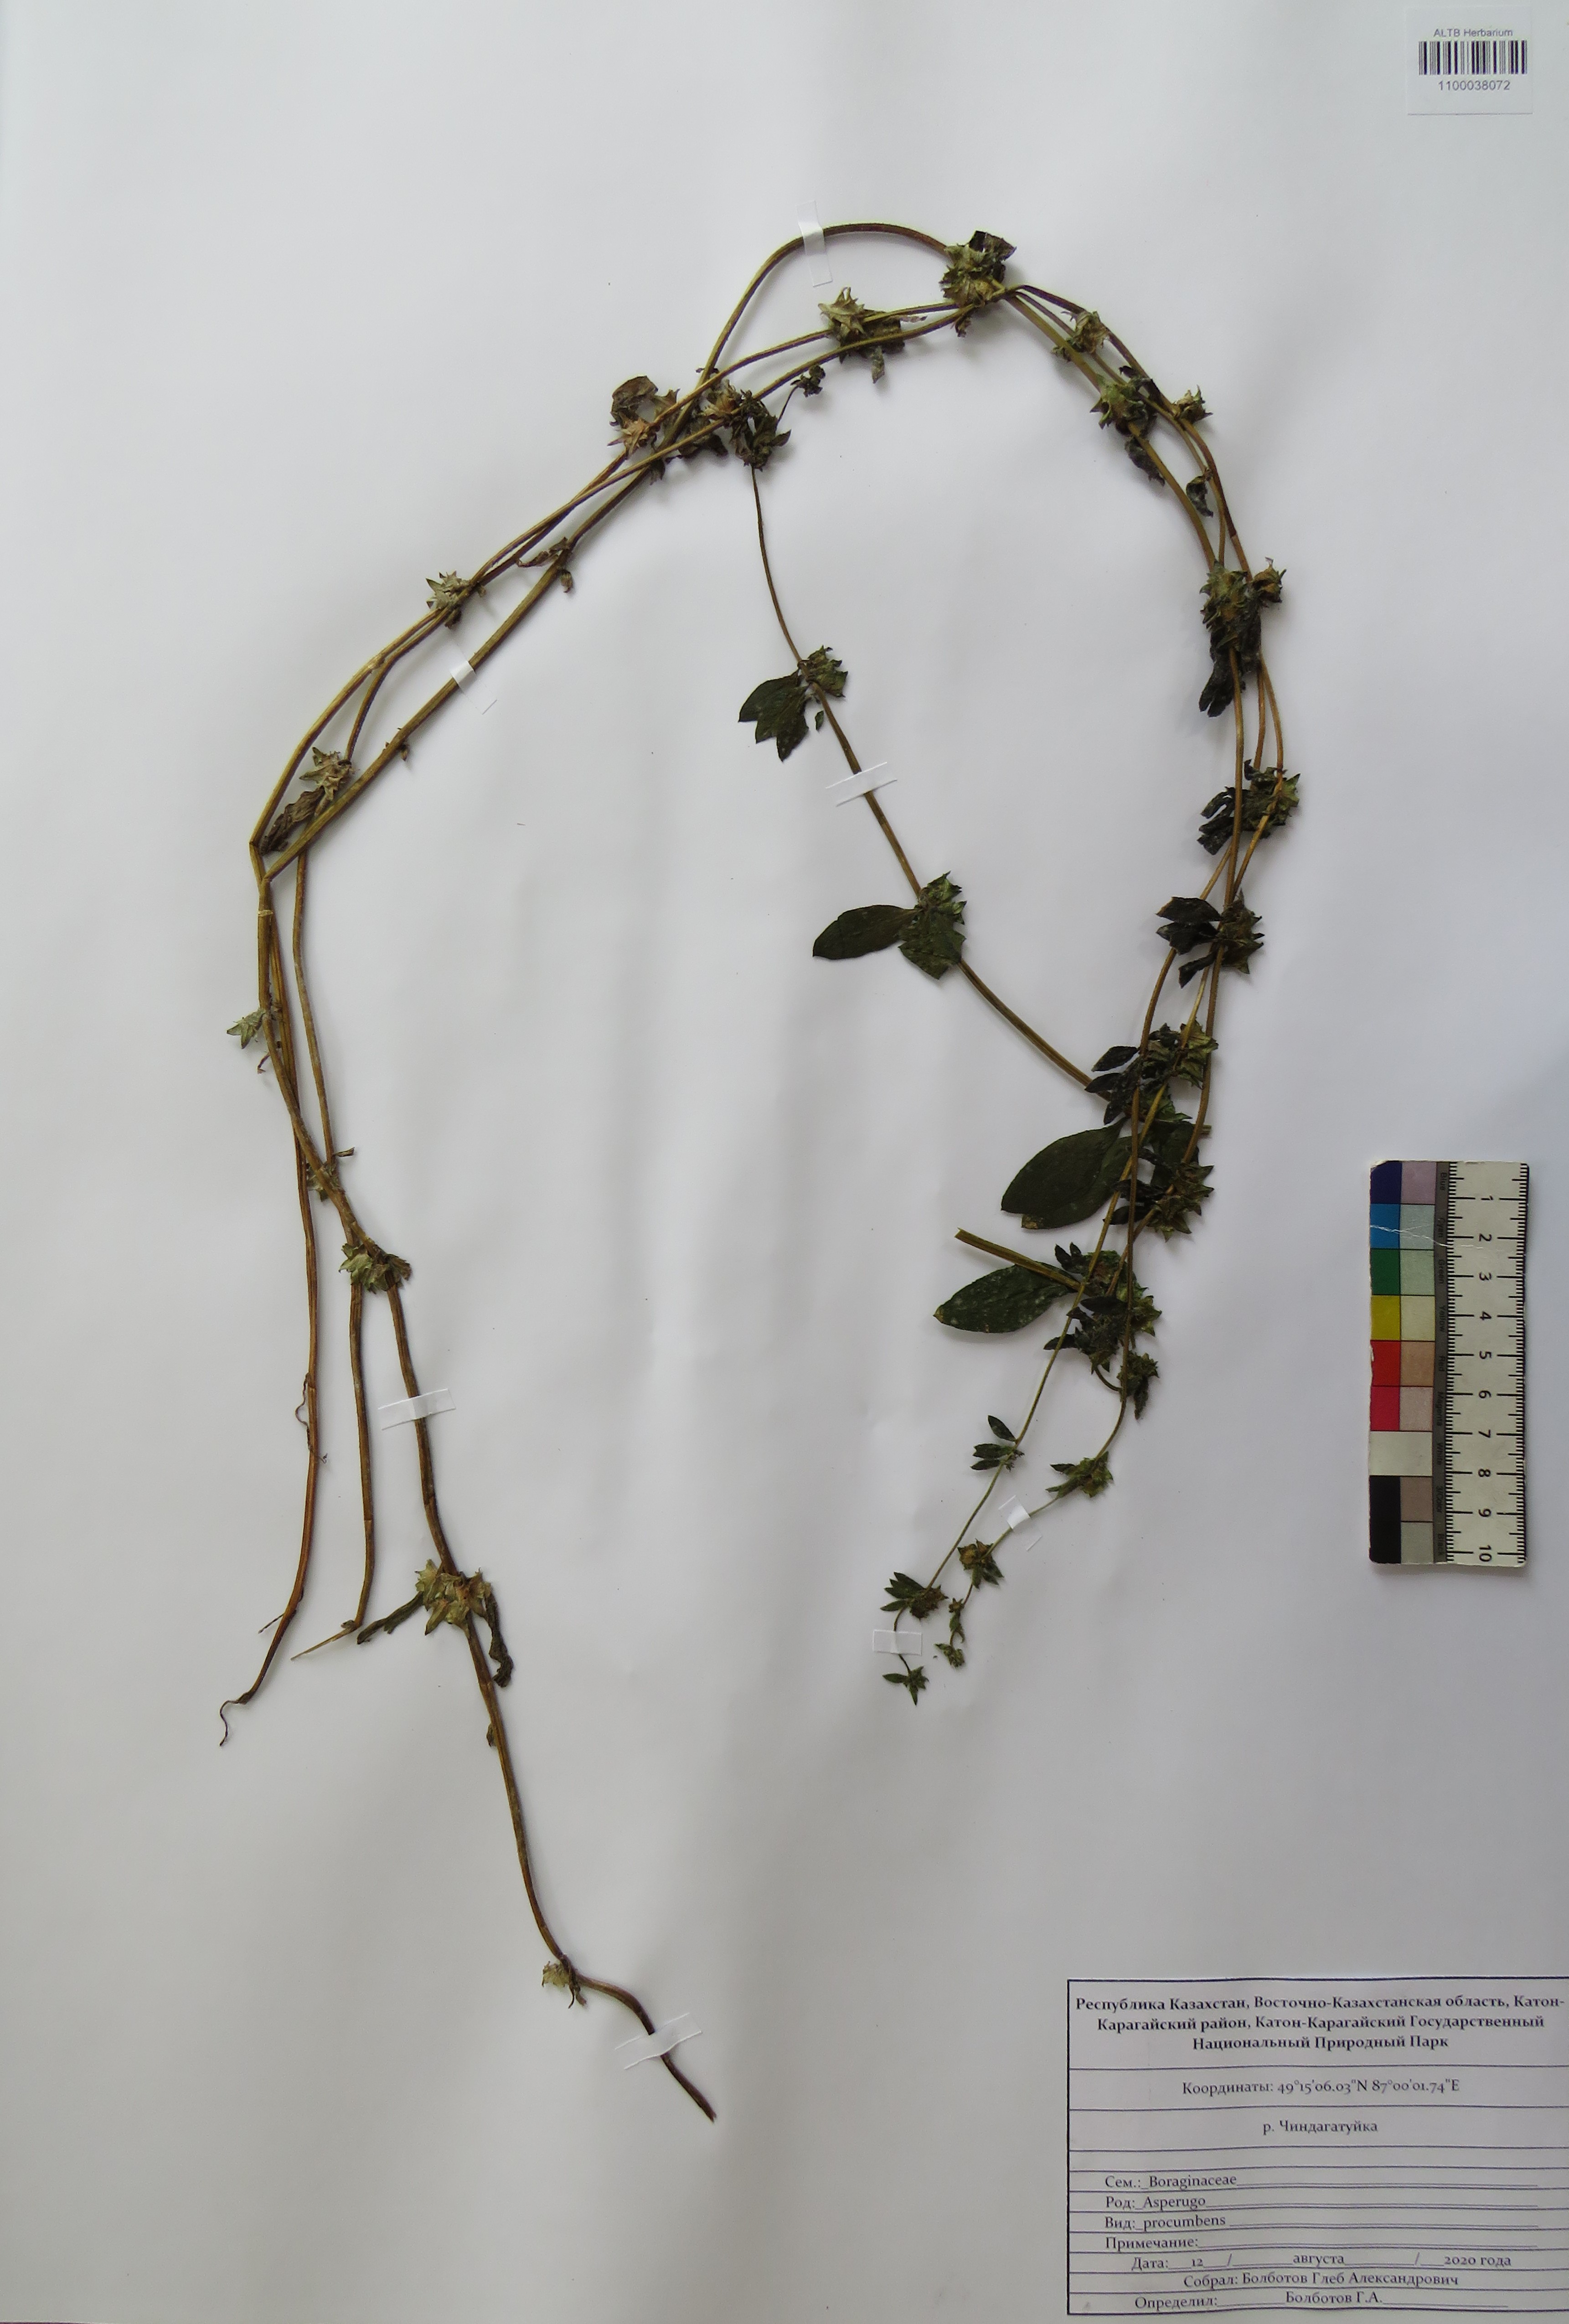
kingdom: Plantae
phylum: Tracheophyta
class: Magnoliopsida
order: Boraginales
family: Boraginaceae
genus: Asperugo
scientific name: Asperugo procumbens
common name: Madwort
